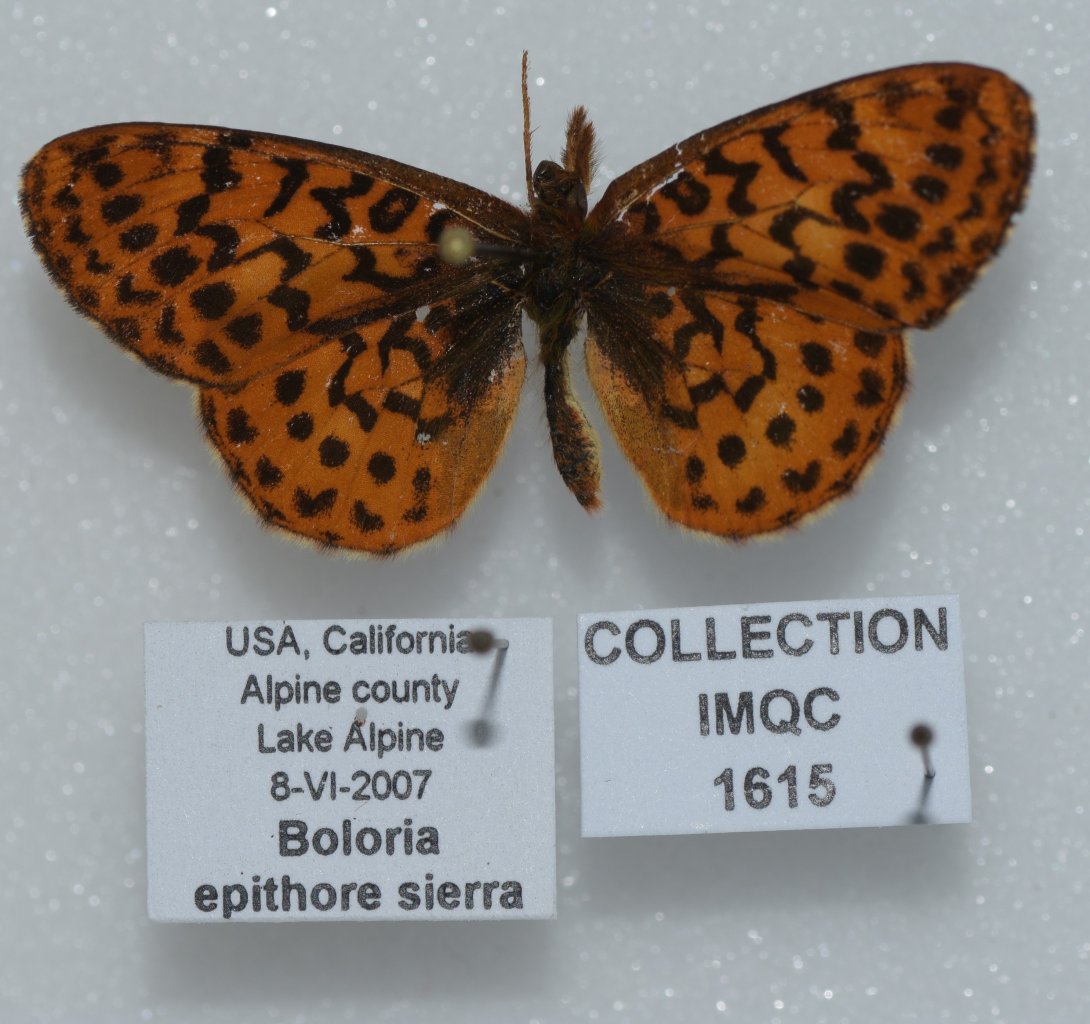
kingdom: Animalia
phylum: Arthropoda
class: Insecta
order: Lepidoptera
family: Nymphalidae
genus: Boloria
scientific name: Boloria epithore
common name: Pacific Fritillary
